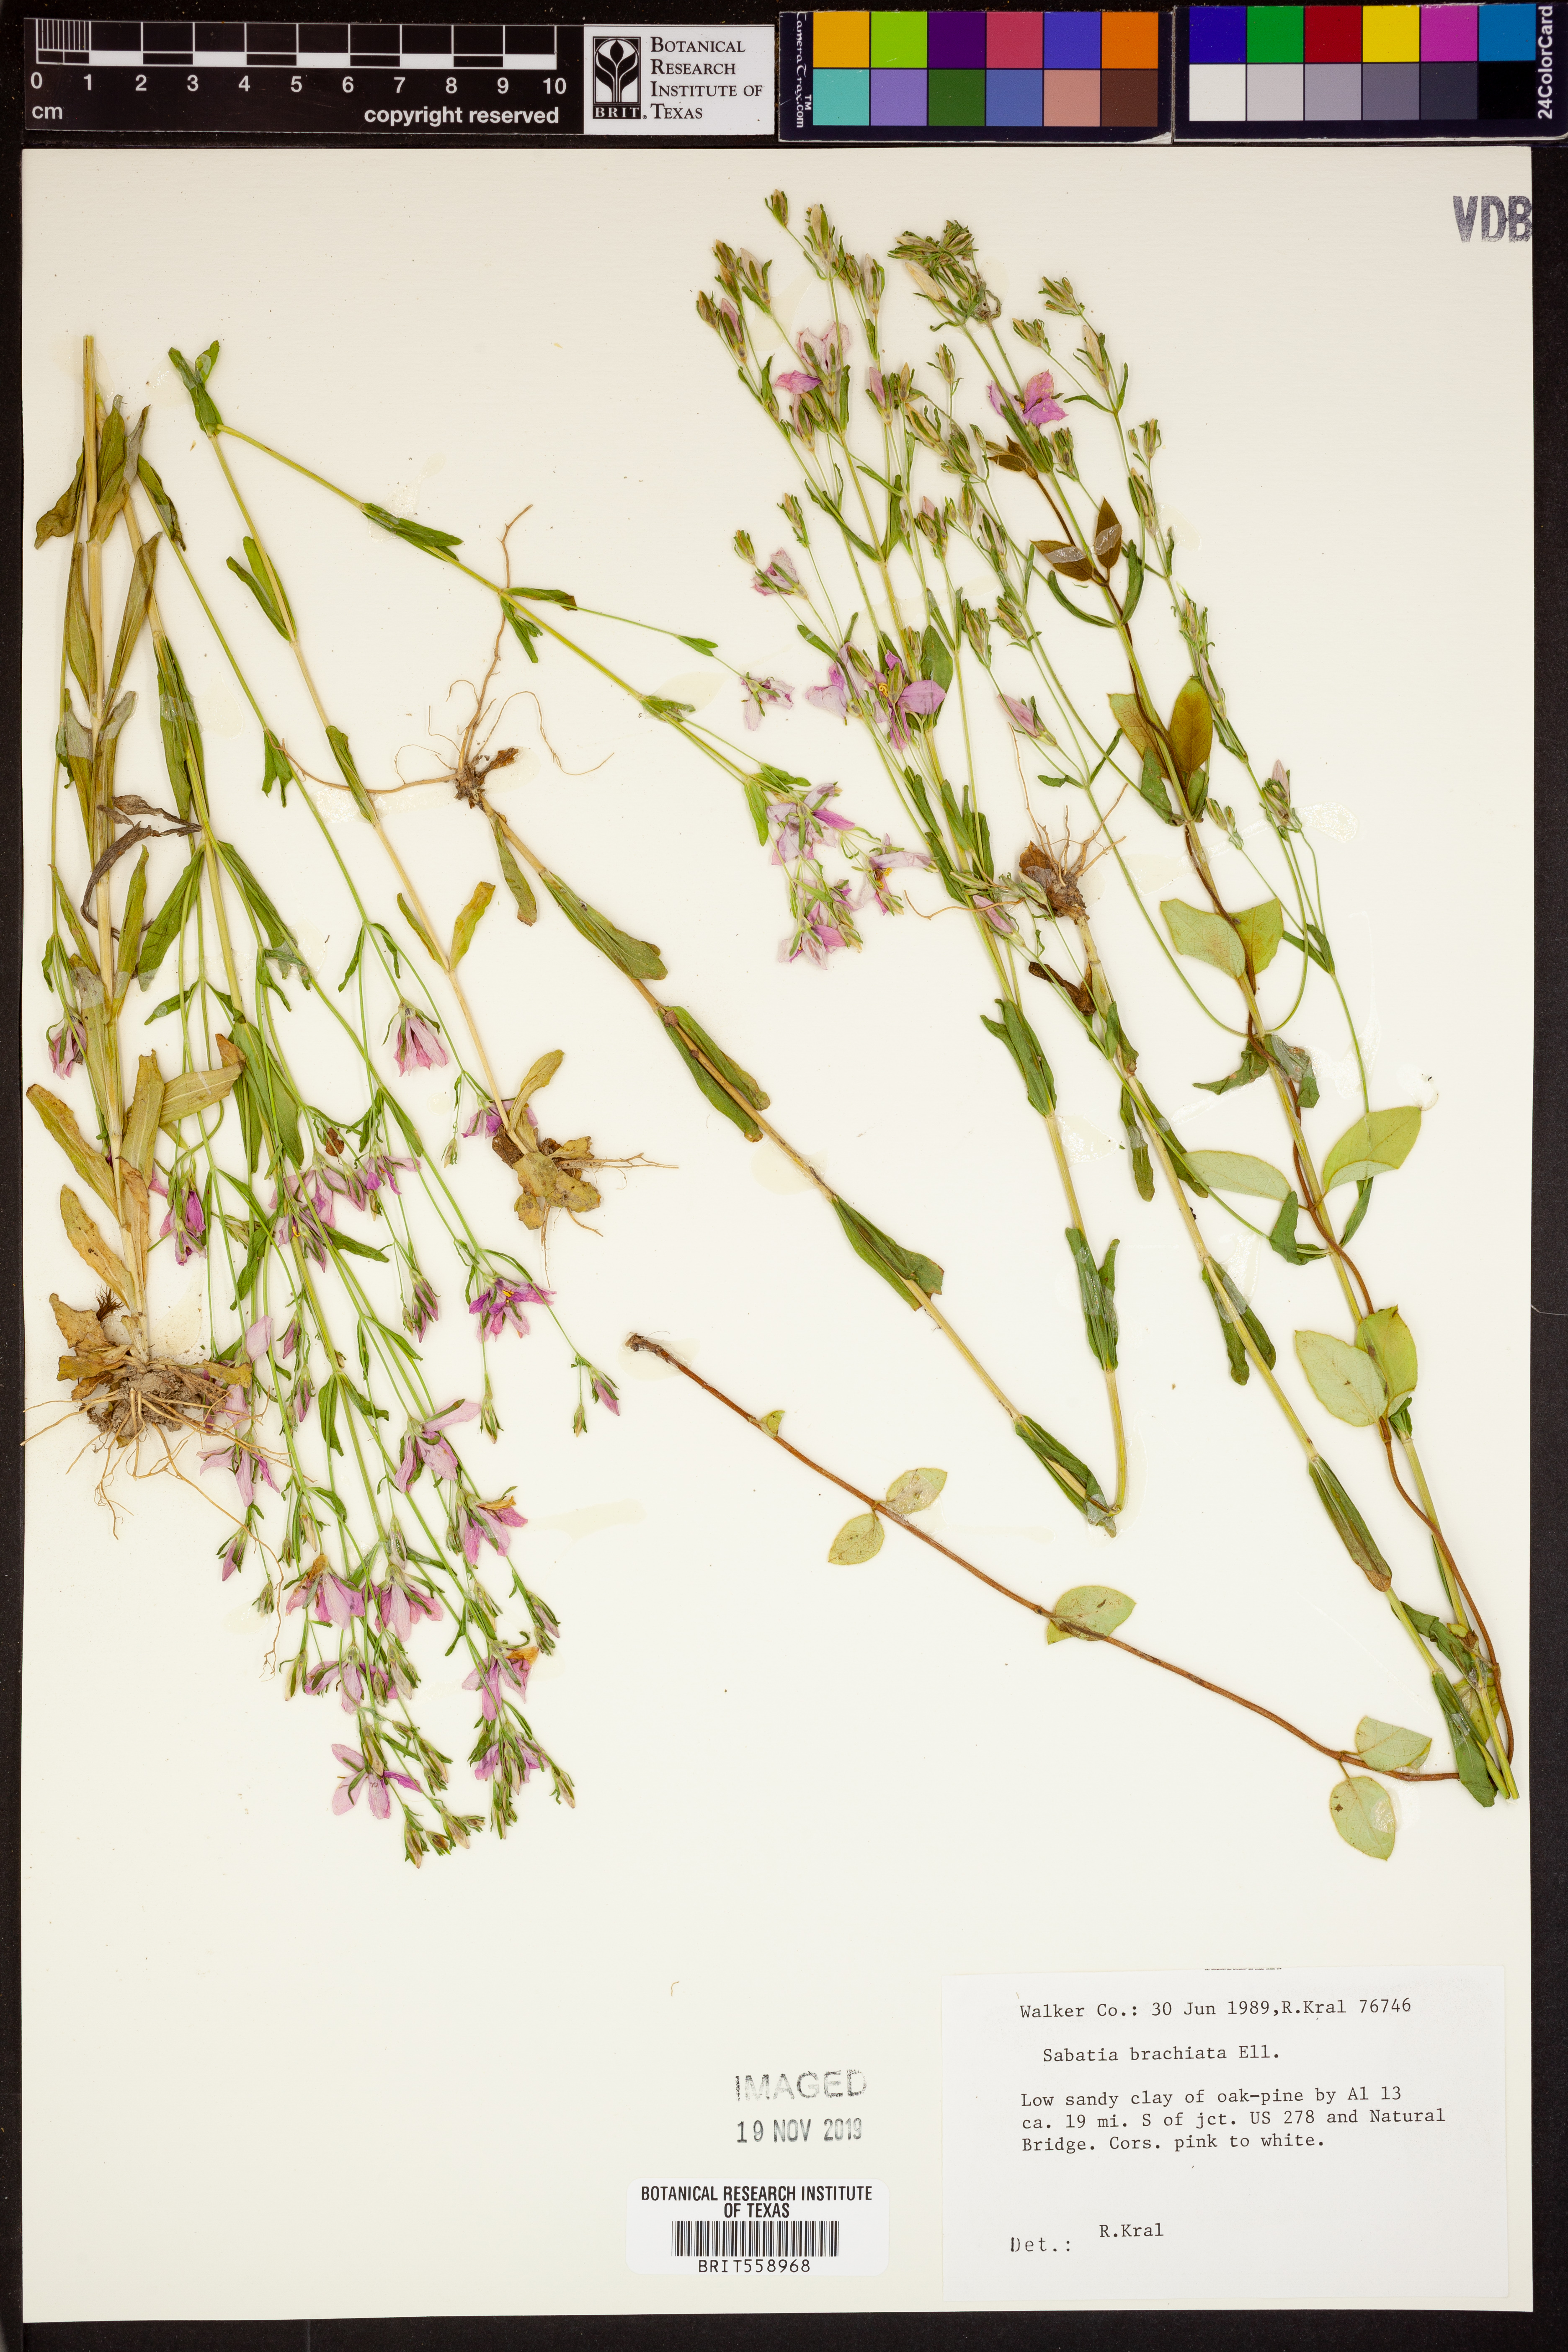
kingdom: Plantae
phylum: Tracheophyta
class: Magnoliopsida
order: Gentianales
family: Gentianaceae
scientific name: Gentianaceae
